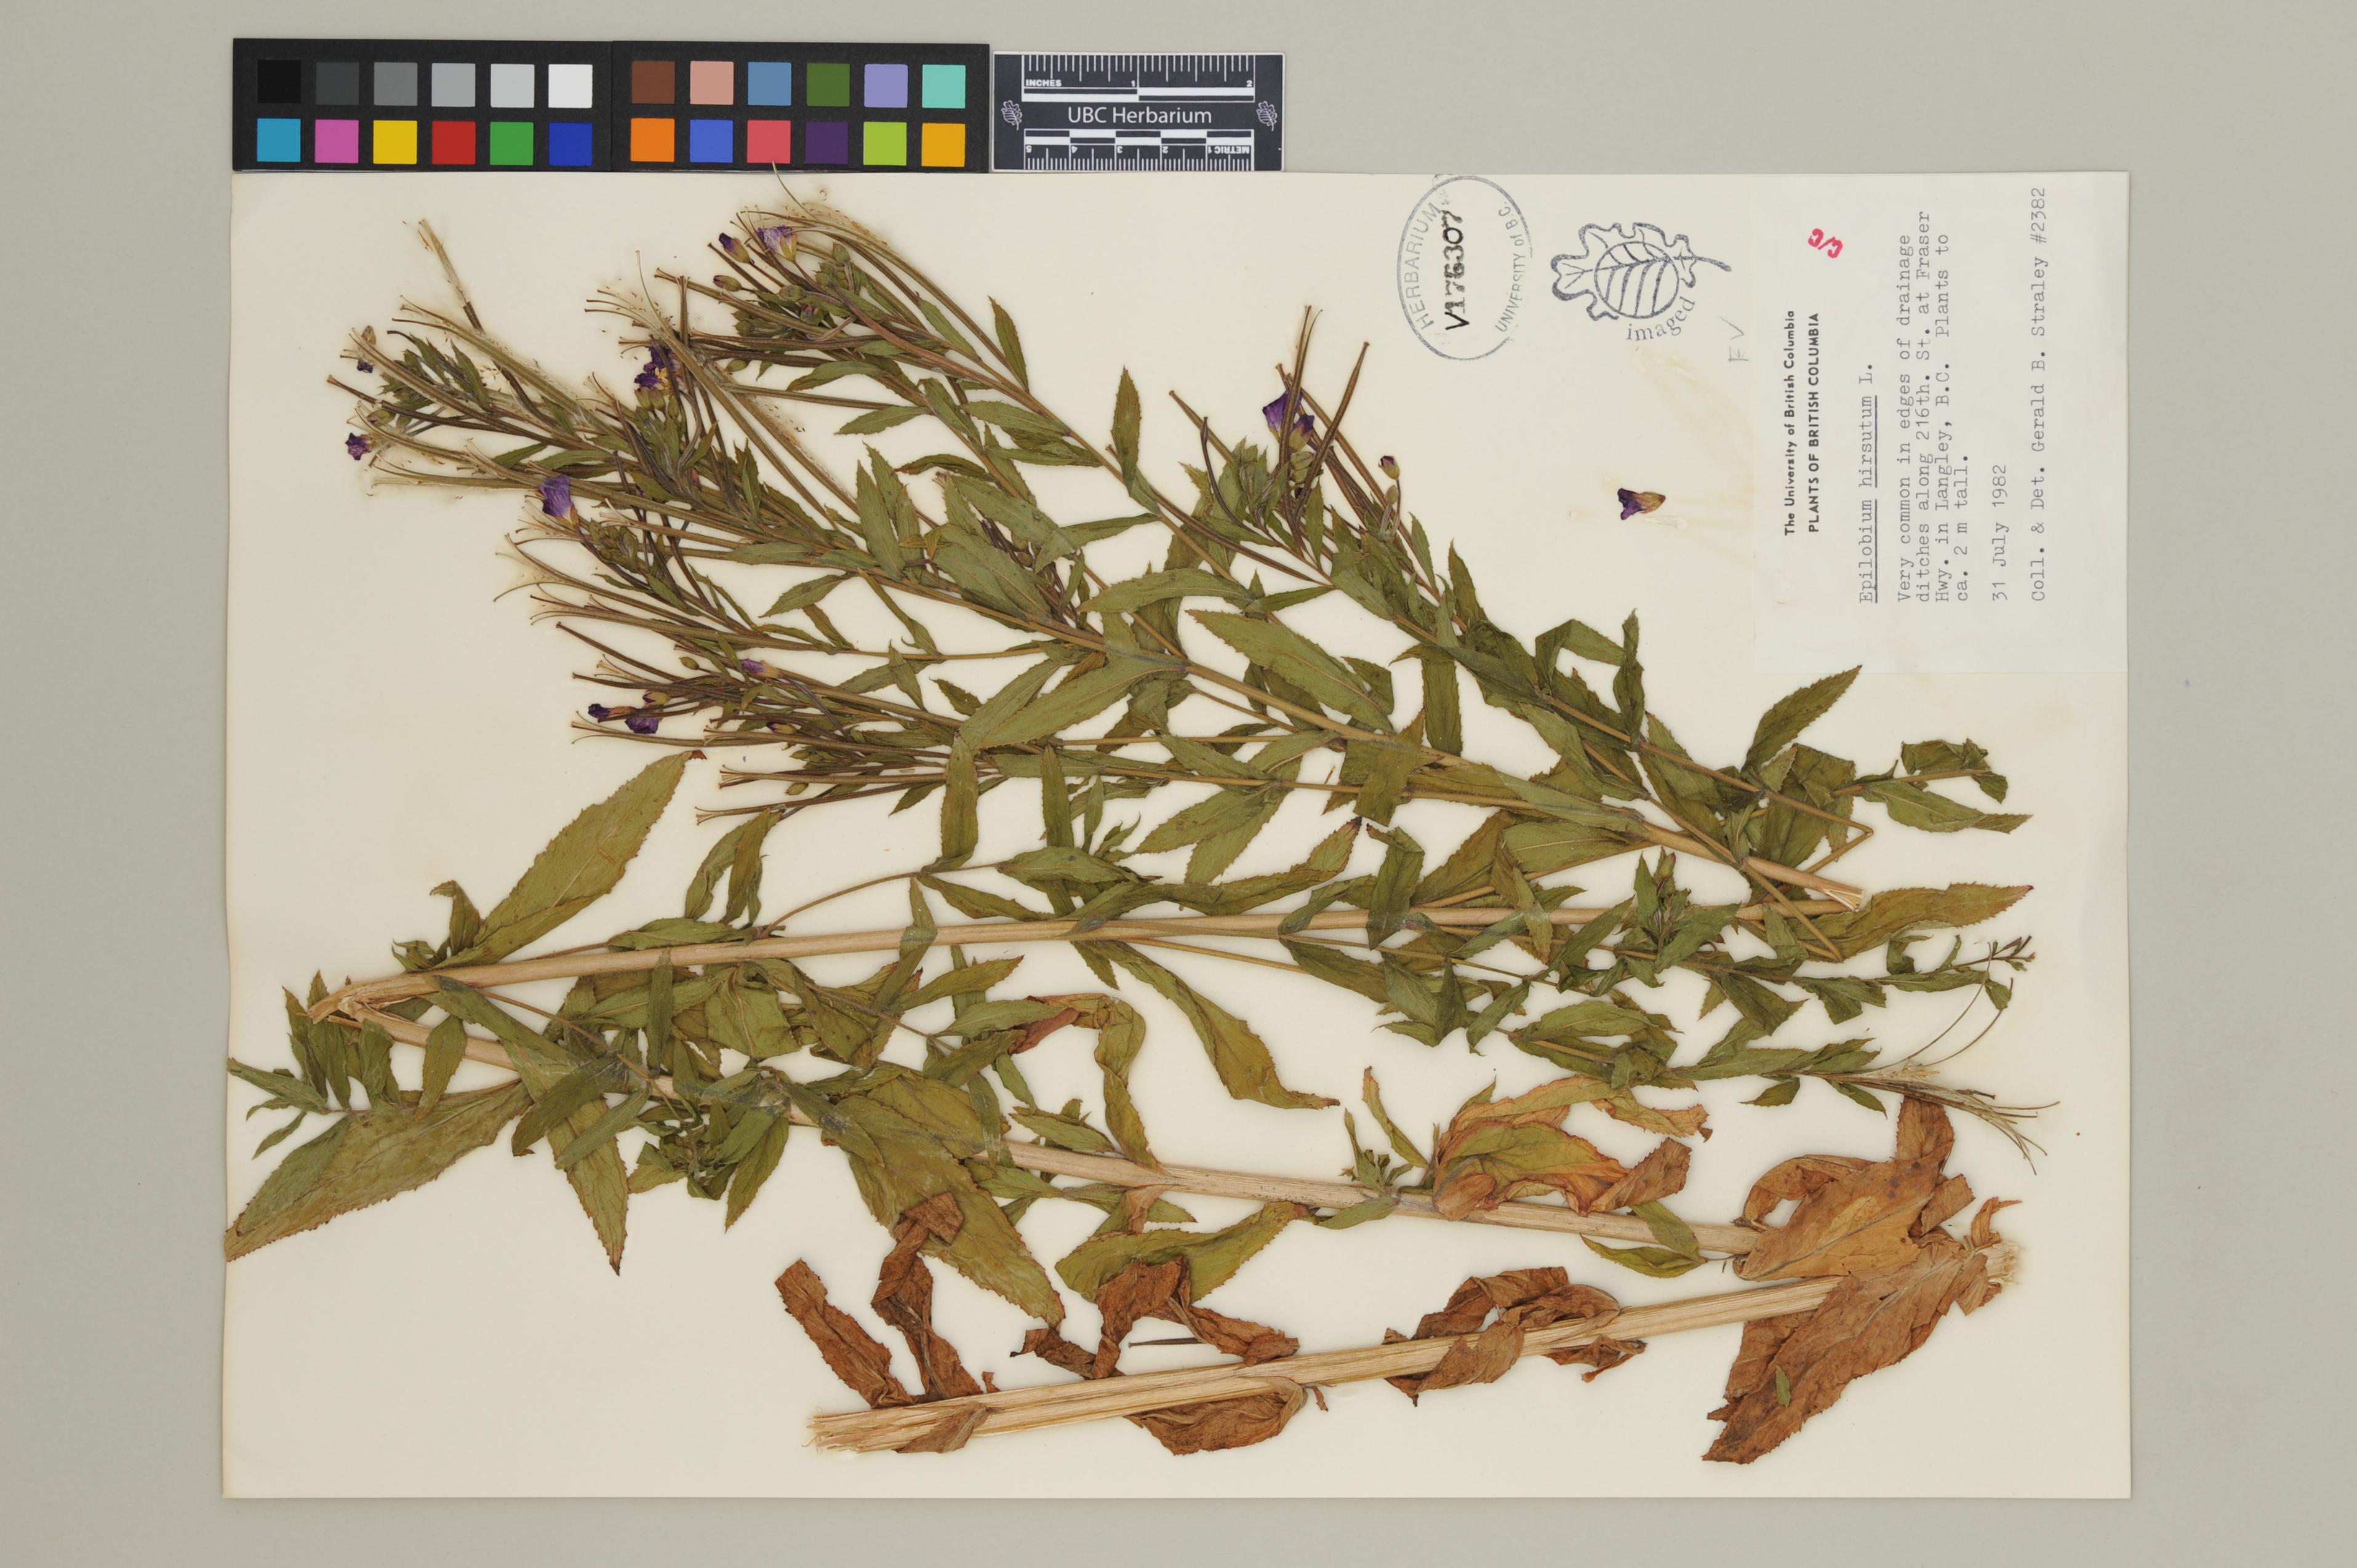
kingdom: Plantae
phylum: Tracheophyta
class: Magnoliopsida
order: Myrtales
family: Onagraceae
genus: Epilobium
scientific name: Epilobium hirsutum
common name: Great willowherb
